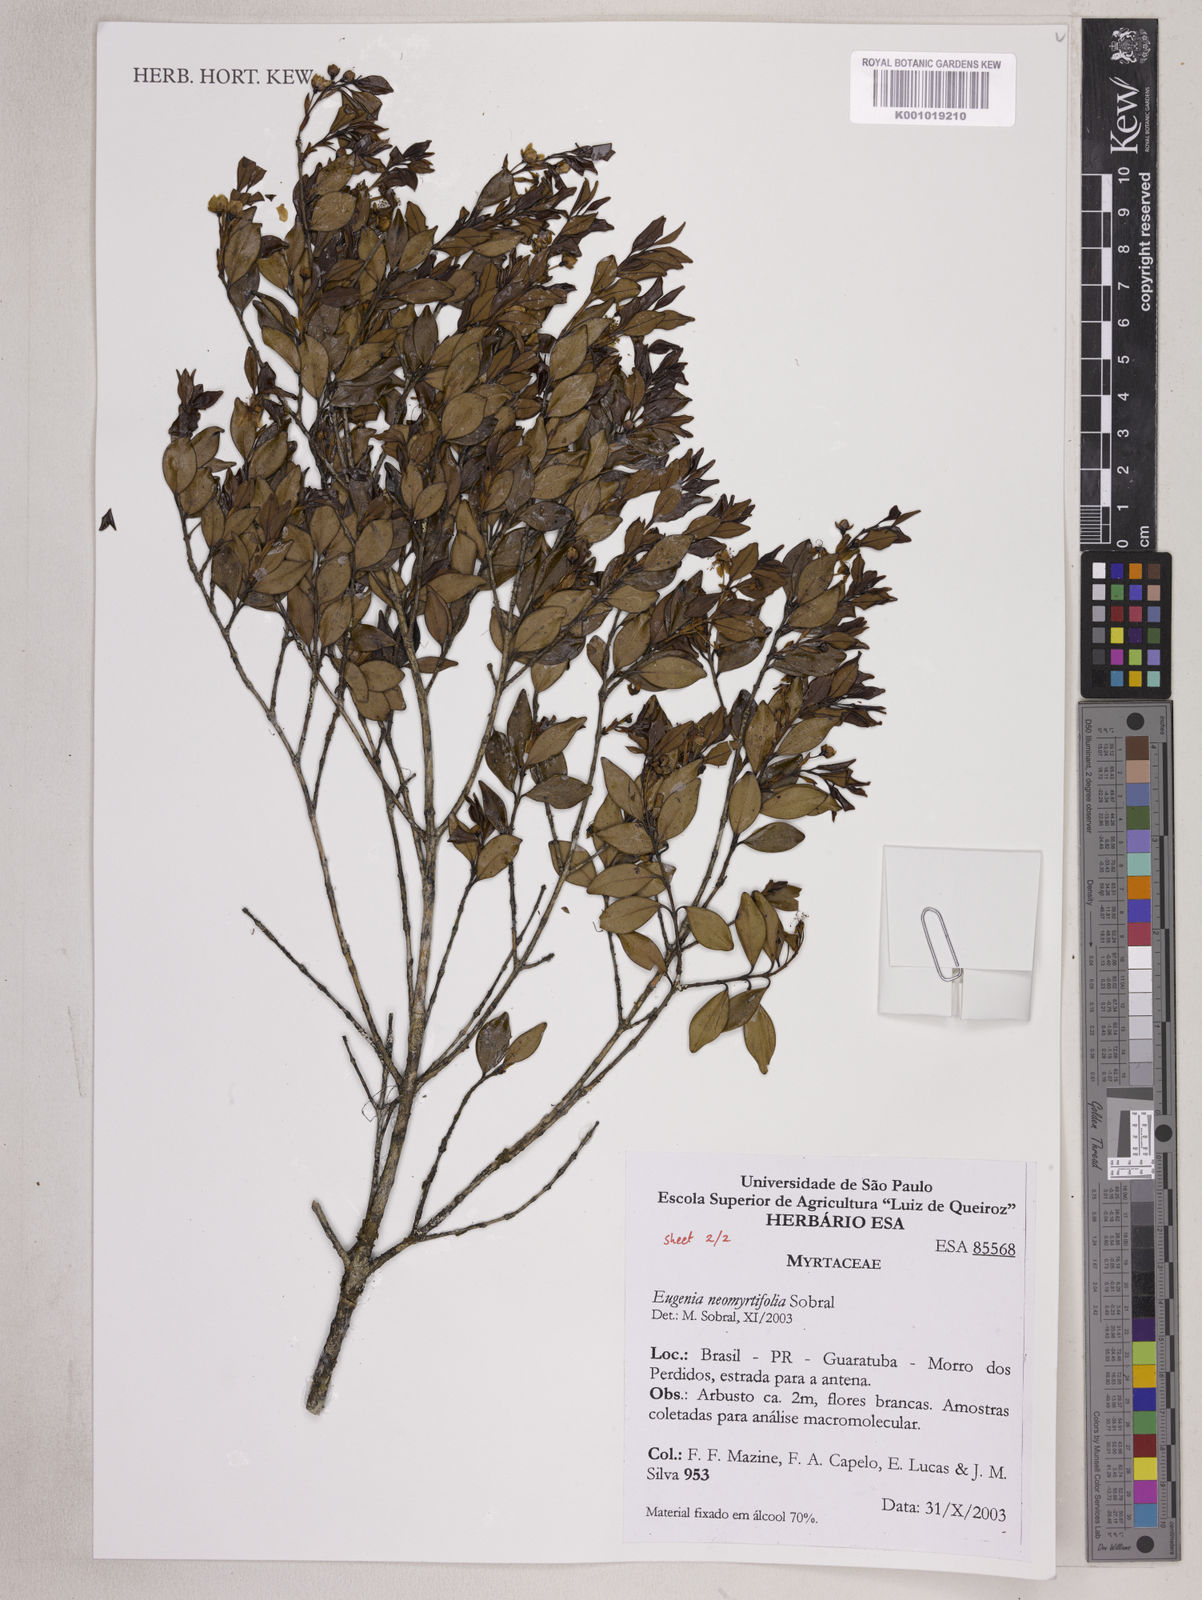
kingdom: Plantae
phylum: Tracheophyta
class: Magnoliopsida
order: Myrtales
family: Myrtaceae
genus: Eugenia
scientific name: Eugenia neomyrtifolia
